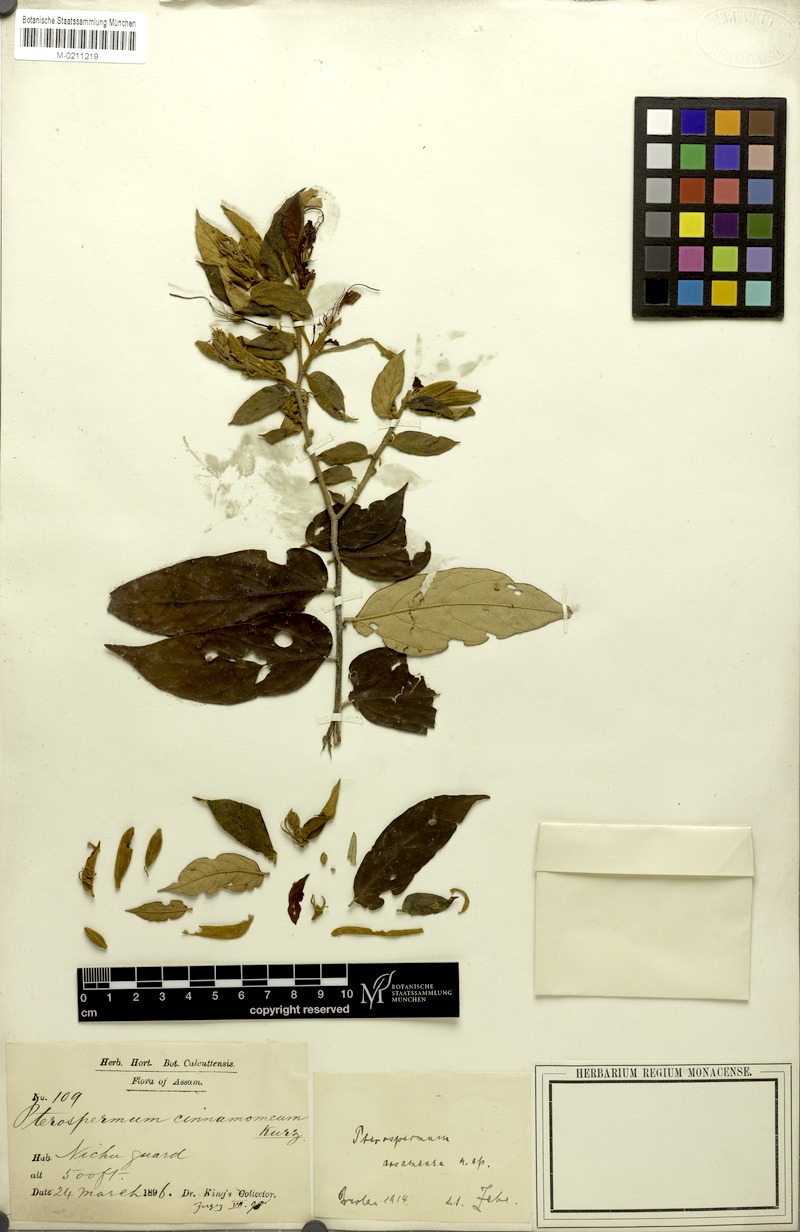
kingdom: Plantae
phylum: Tracheophyta
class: Magnoliopsida
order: Malvales
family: Malvaceae
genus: Pterospermum
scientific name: Pterospermum cinnamomeum
